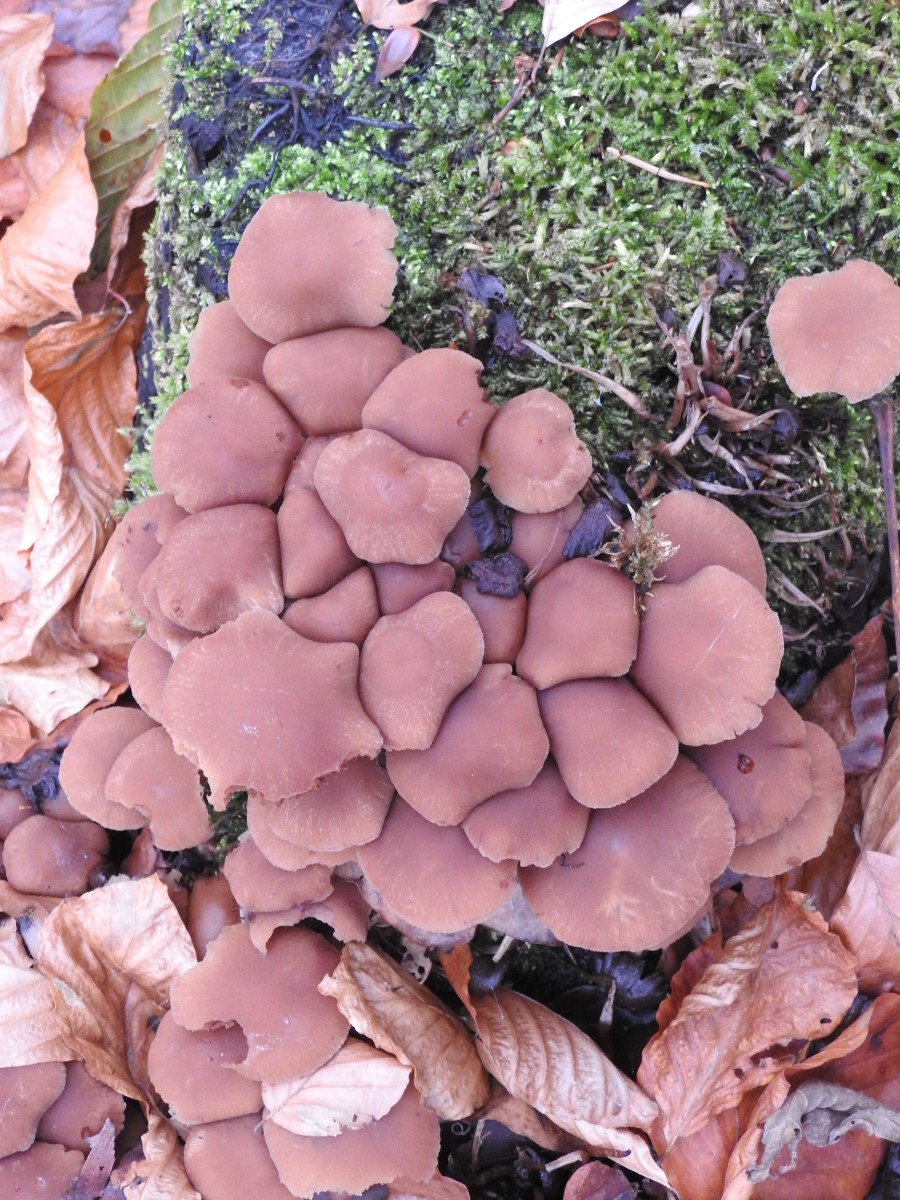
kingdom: Fungi
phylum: Basidiomycota
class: Agaricomycetes
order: Agaricales
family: Psathyrellaceae
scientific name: Psathyrellaceae
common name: mørkhatfamilien
